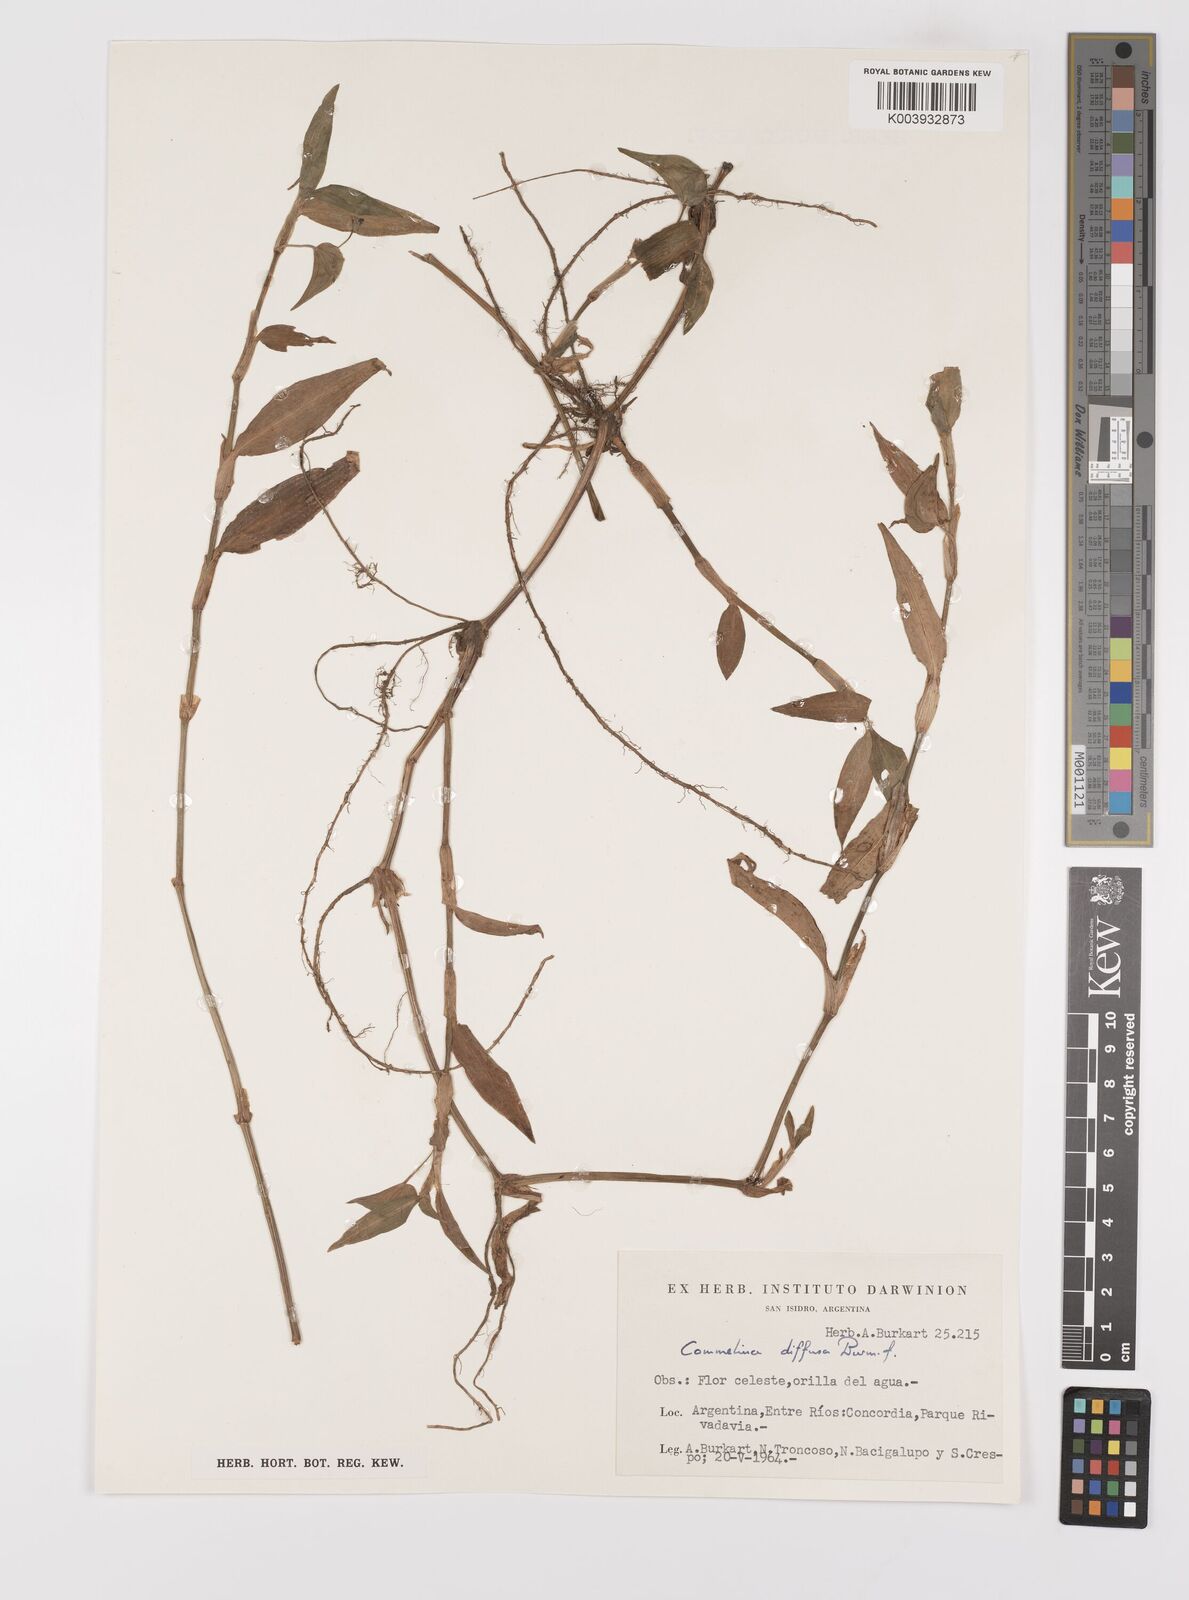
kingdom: Plantae
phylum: Tracheophyta
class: Liliopsida
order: Commelinales
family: Commelinaceae
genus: Commelina
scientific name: Commelina diffusa
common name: Climbing dayflower
